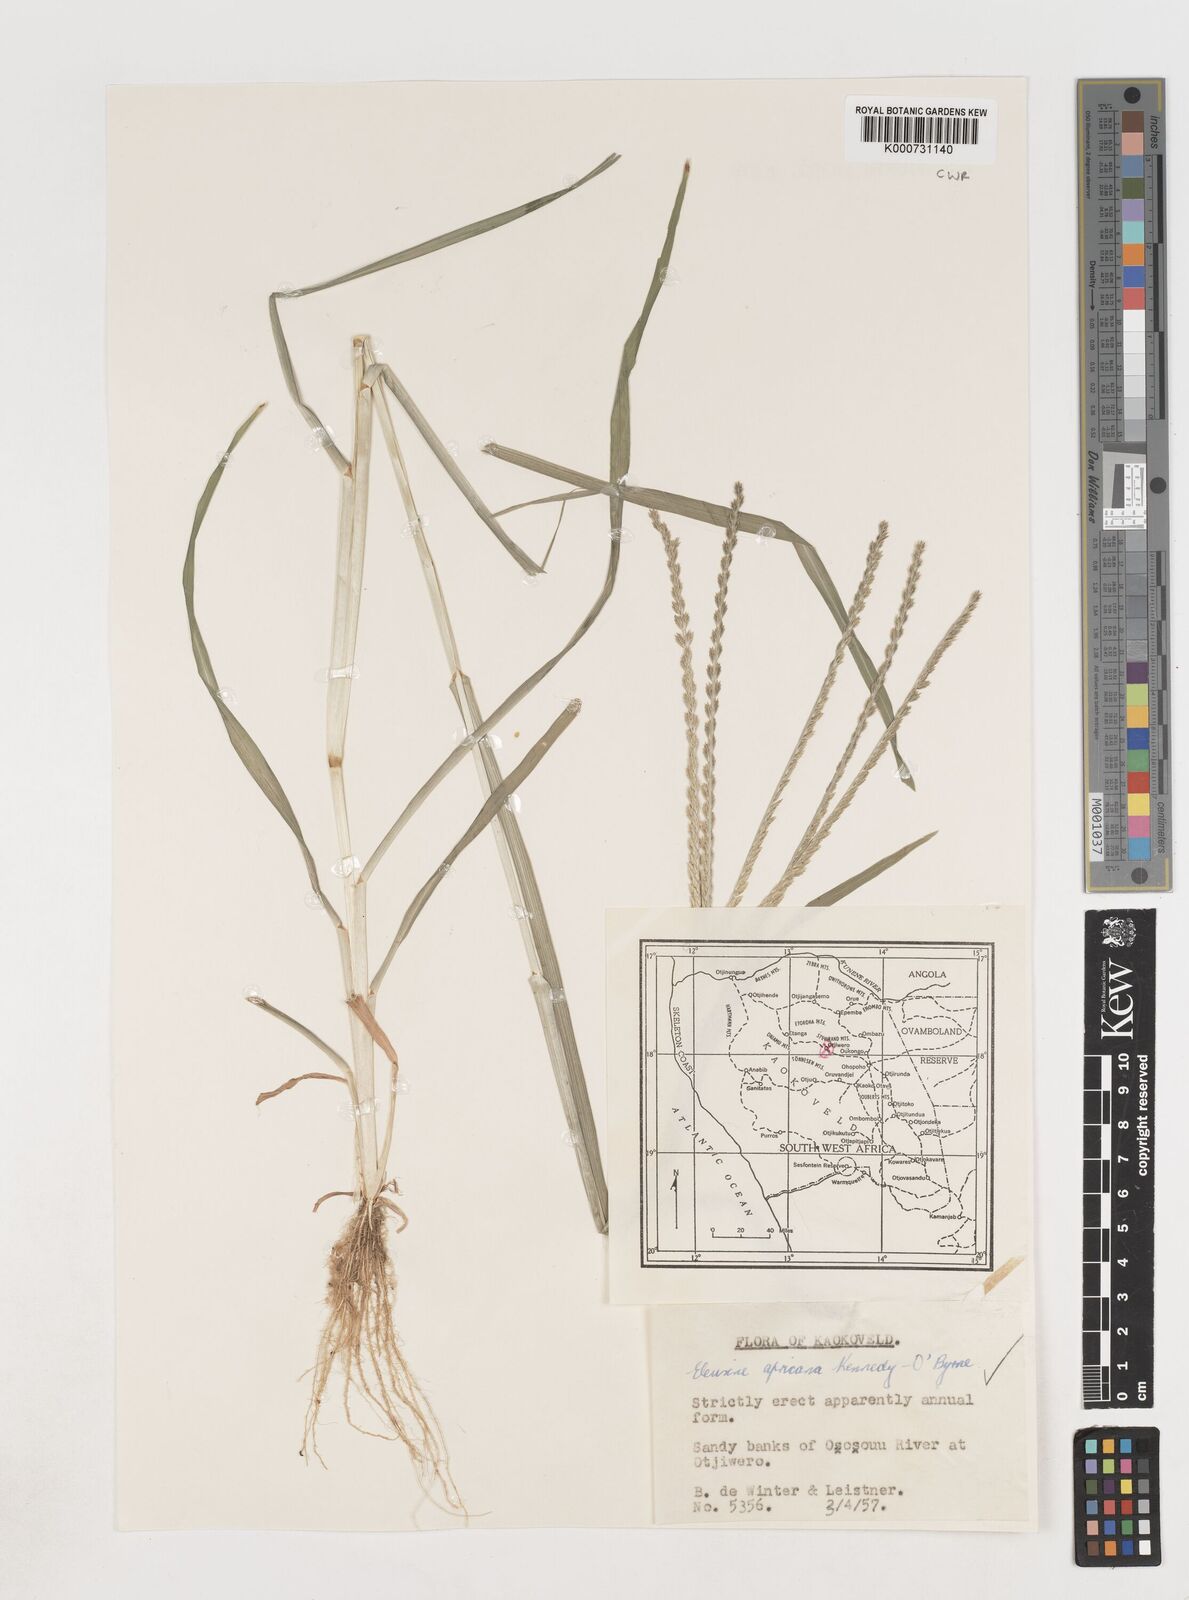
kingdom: Plantae
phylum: Tracheophyta
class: Liliopsida
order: Poales
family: Poaceae
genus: Eleusine
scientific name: Eleusine africana
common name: Wild african finger millet
